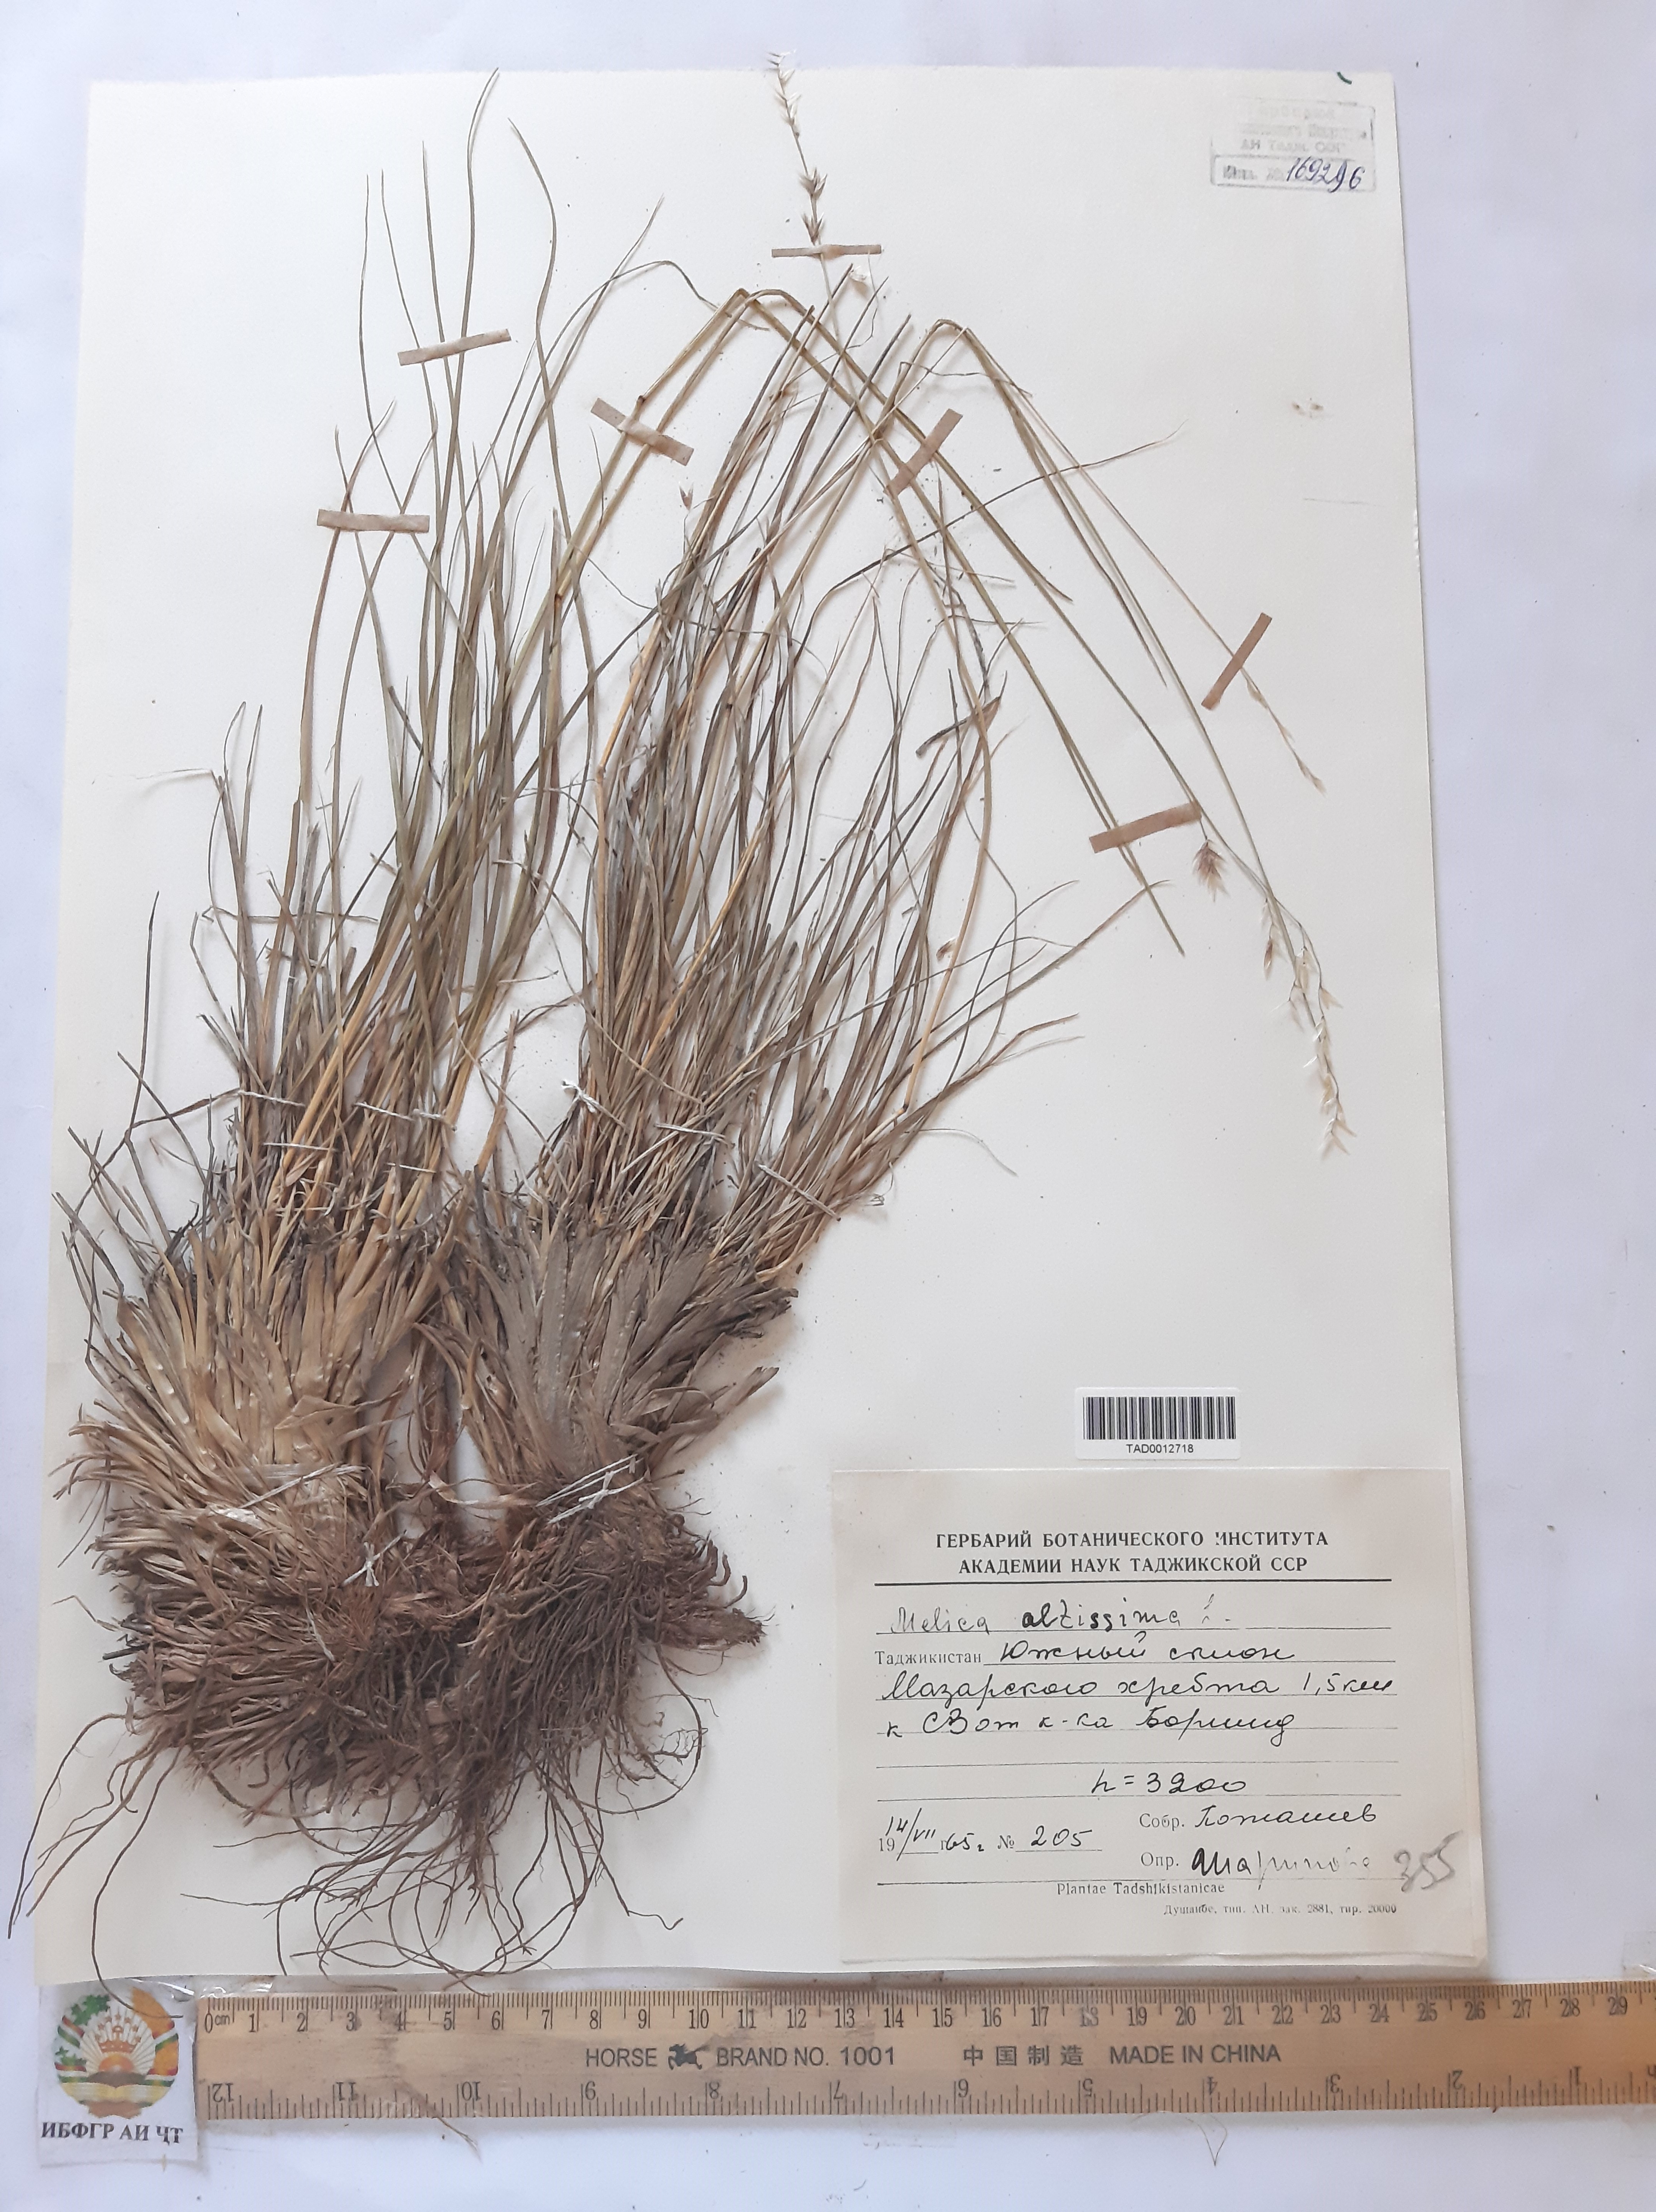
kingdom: Plantae
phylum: Tracheophyta
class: Liliopsida
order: Poales
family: Poaceae
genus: Melica
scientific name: Melica altissima
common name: Siberian melicgrass
